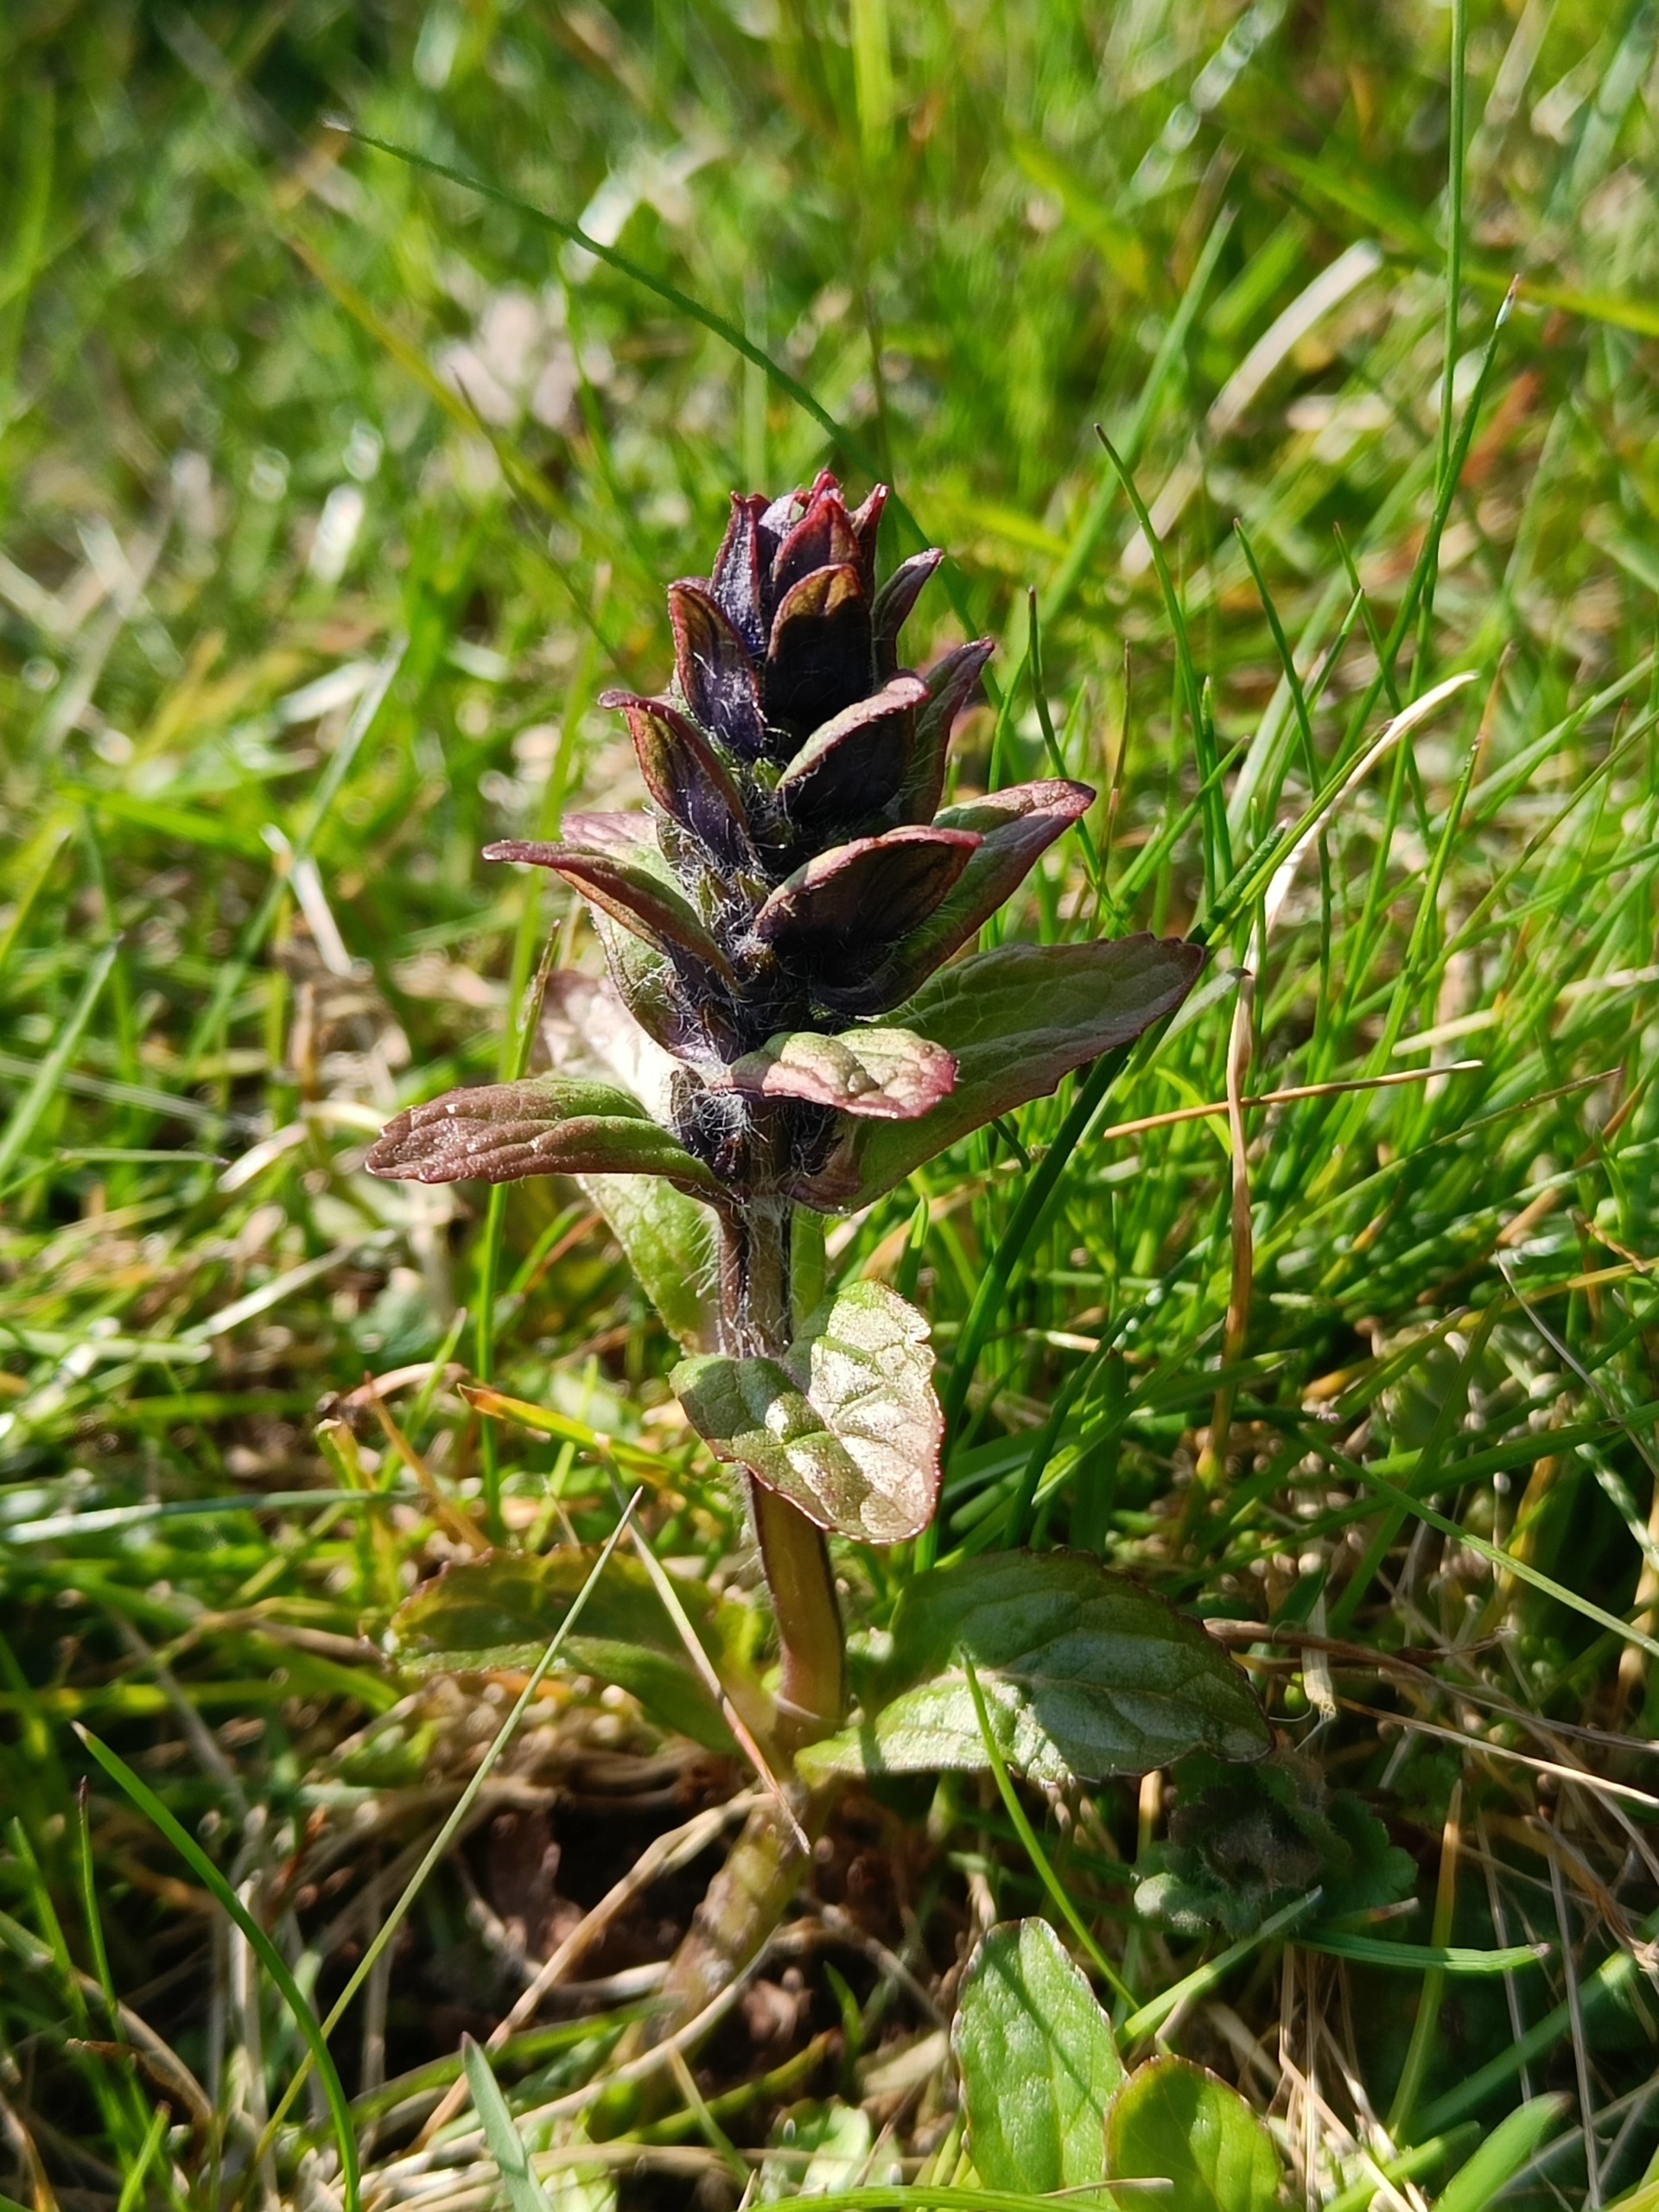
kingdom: Plantae
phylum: Tracheophyta
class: Magnoliopsida
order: Lamiales
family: Lamiaceae
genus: Ajuga
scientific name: Ajuga reptans
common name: Krybende læbeløs
